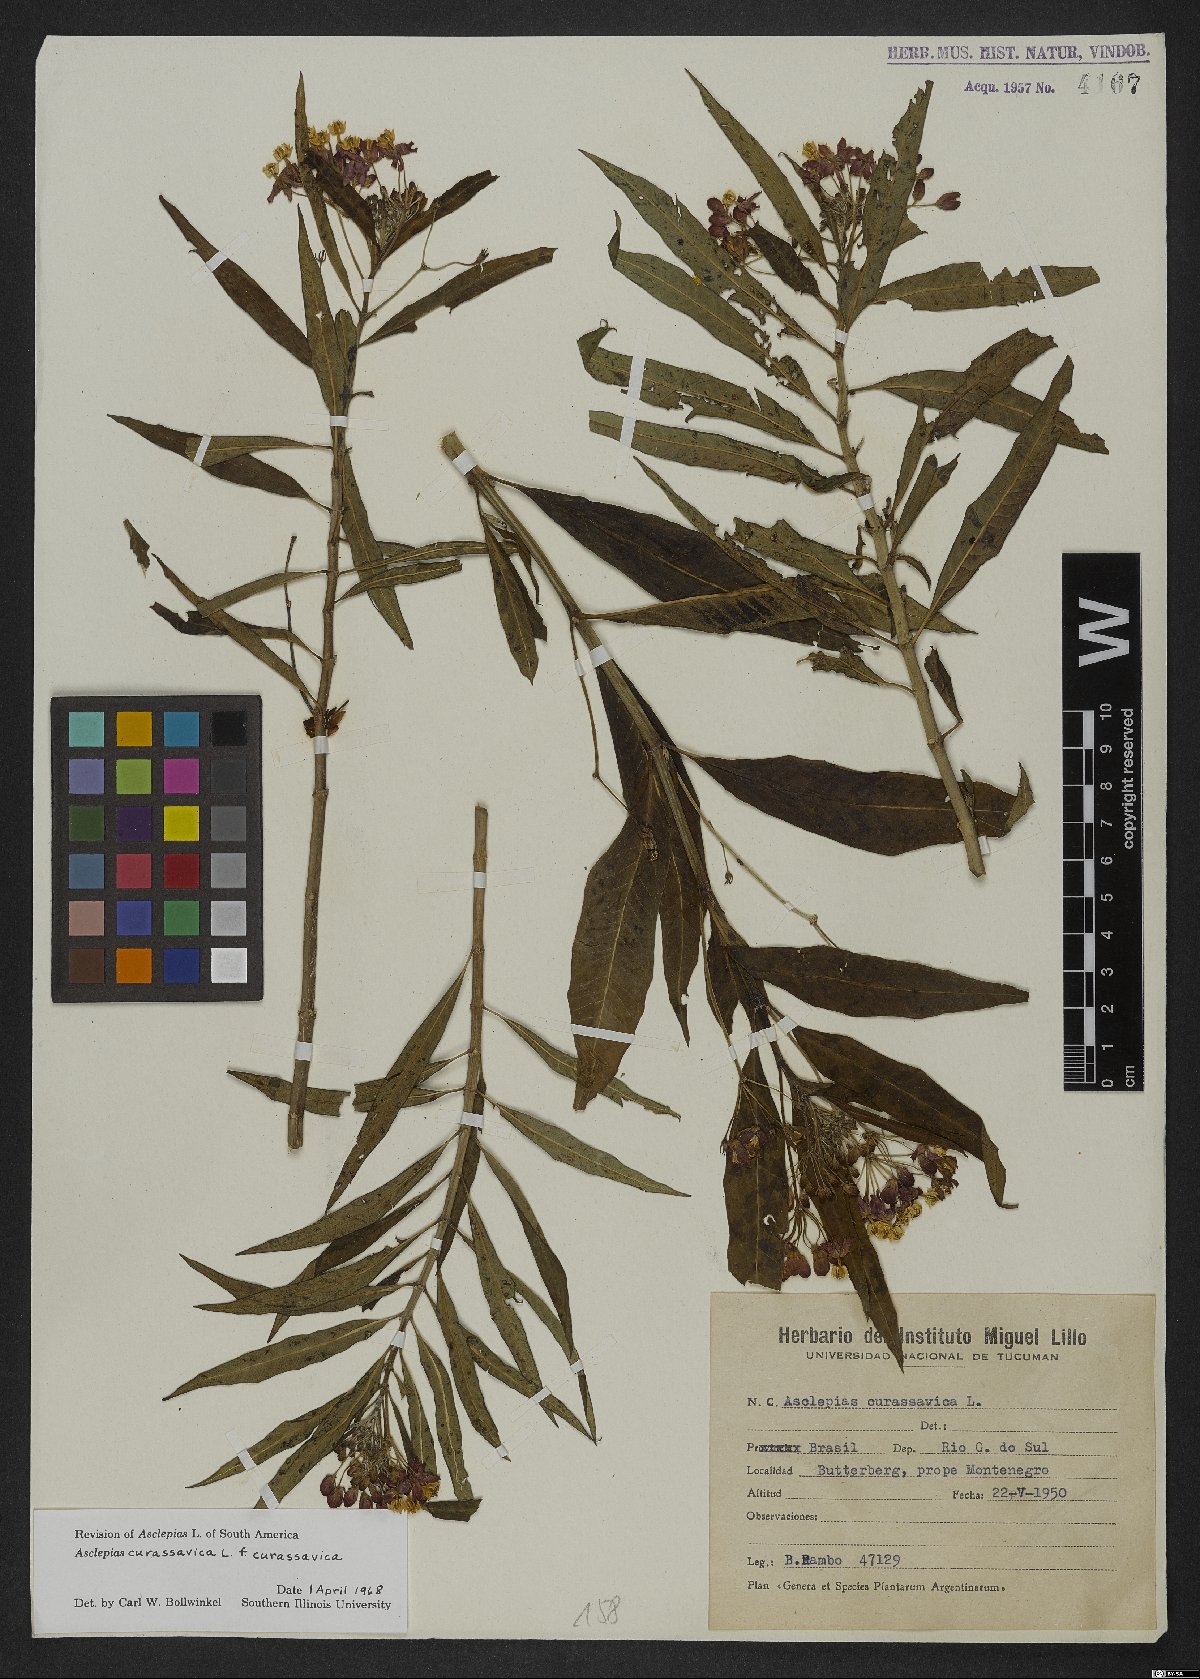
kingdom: Plantae
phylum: Tracheophyta
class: Magnoliopsida
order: Gentianales
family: Apocynaceae
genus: Asclepias
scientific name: Asclepias curassavica
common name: Bloodflower
